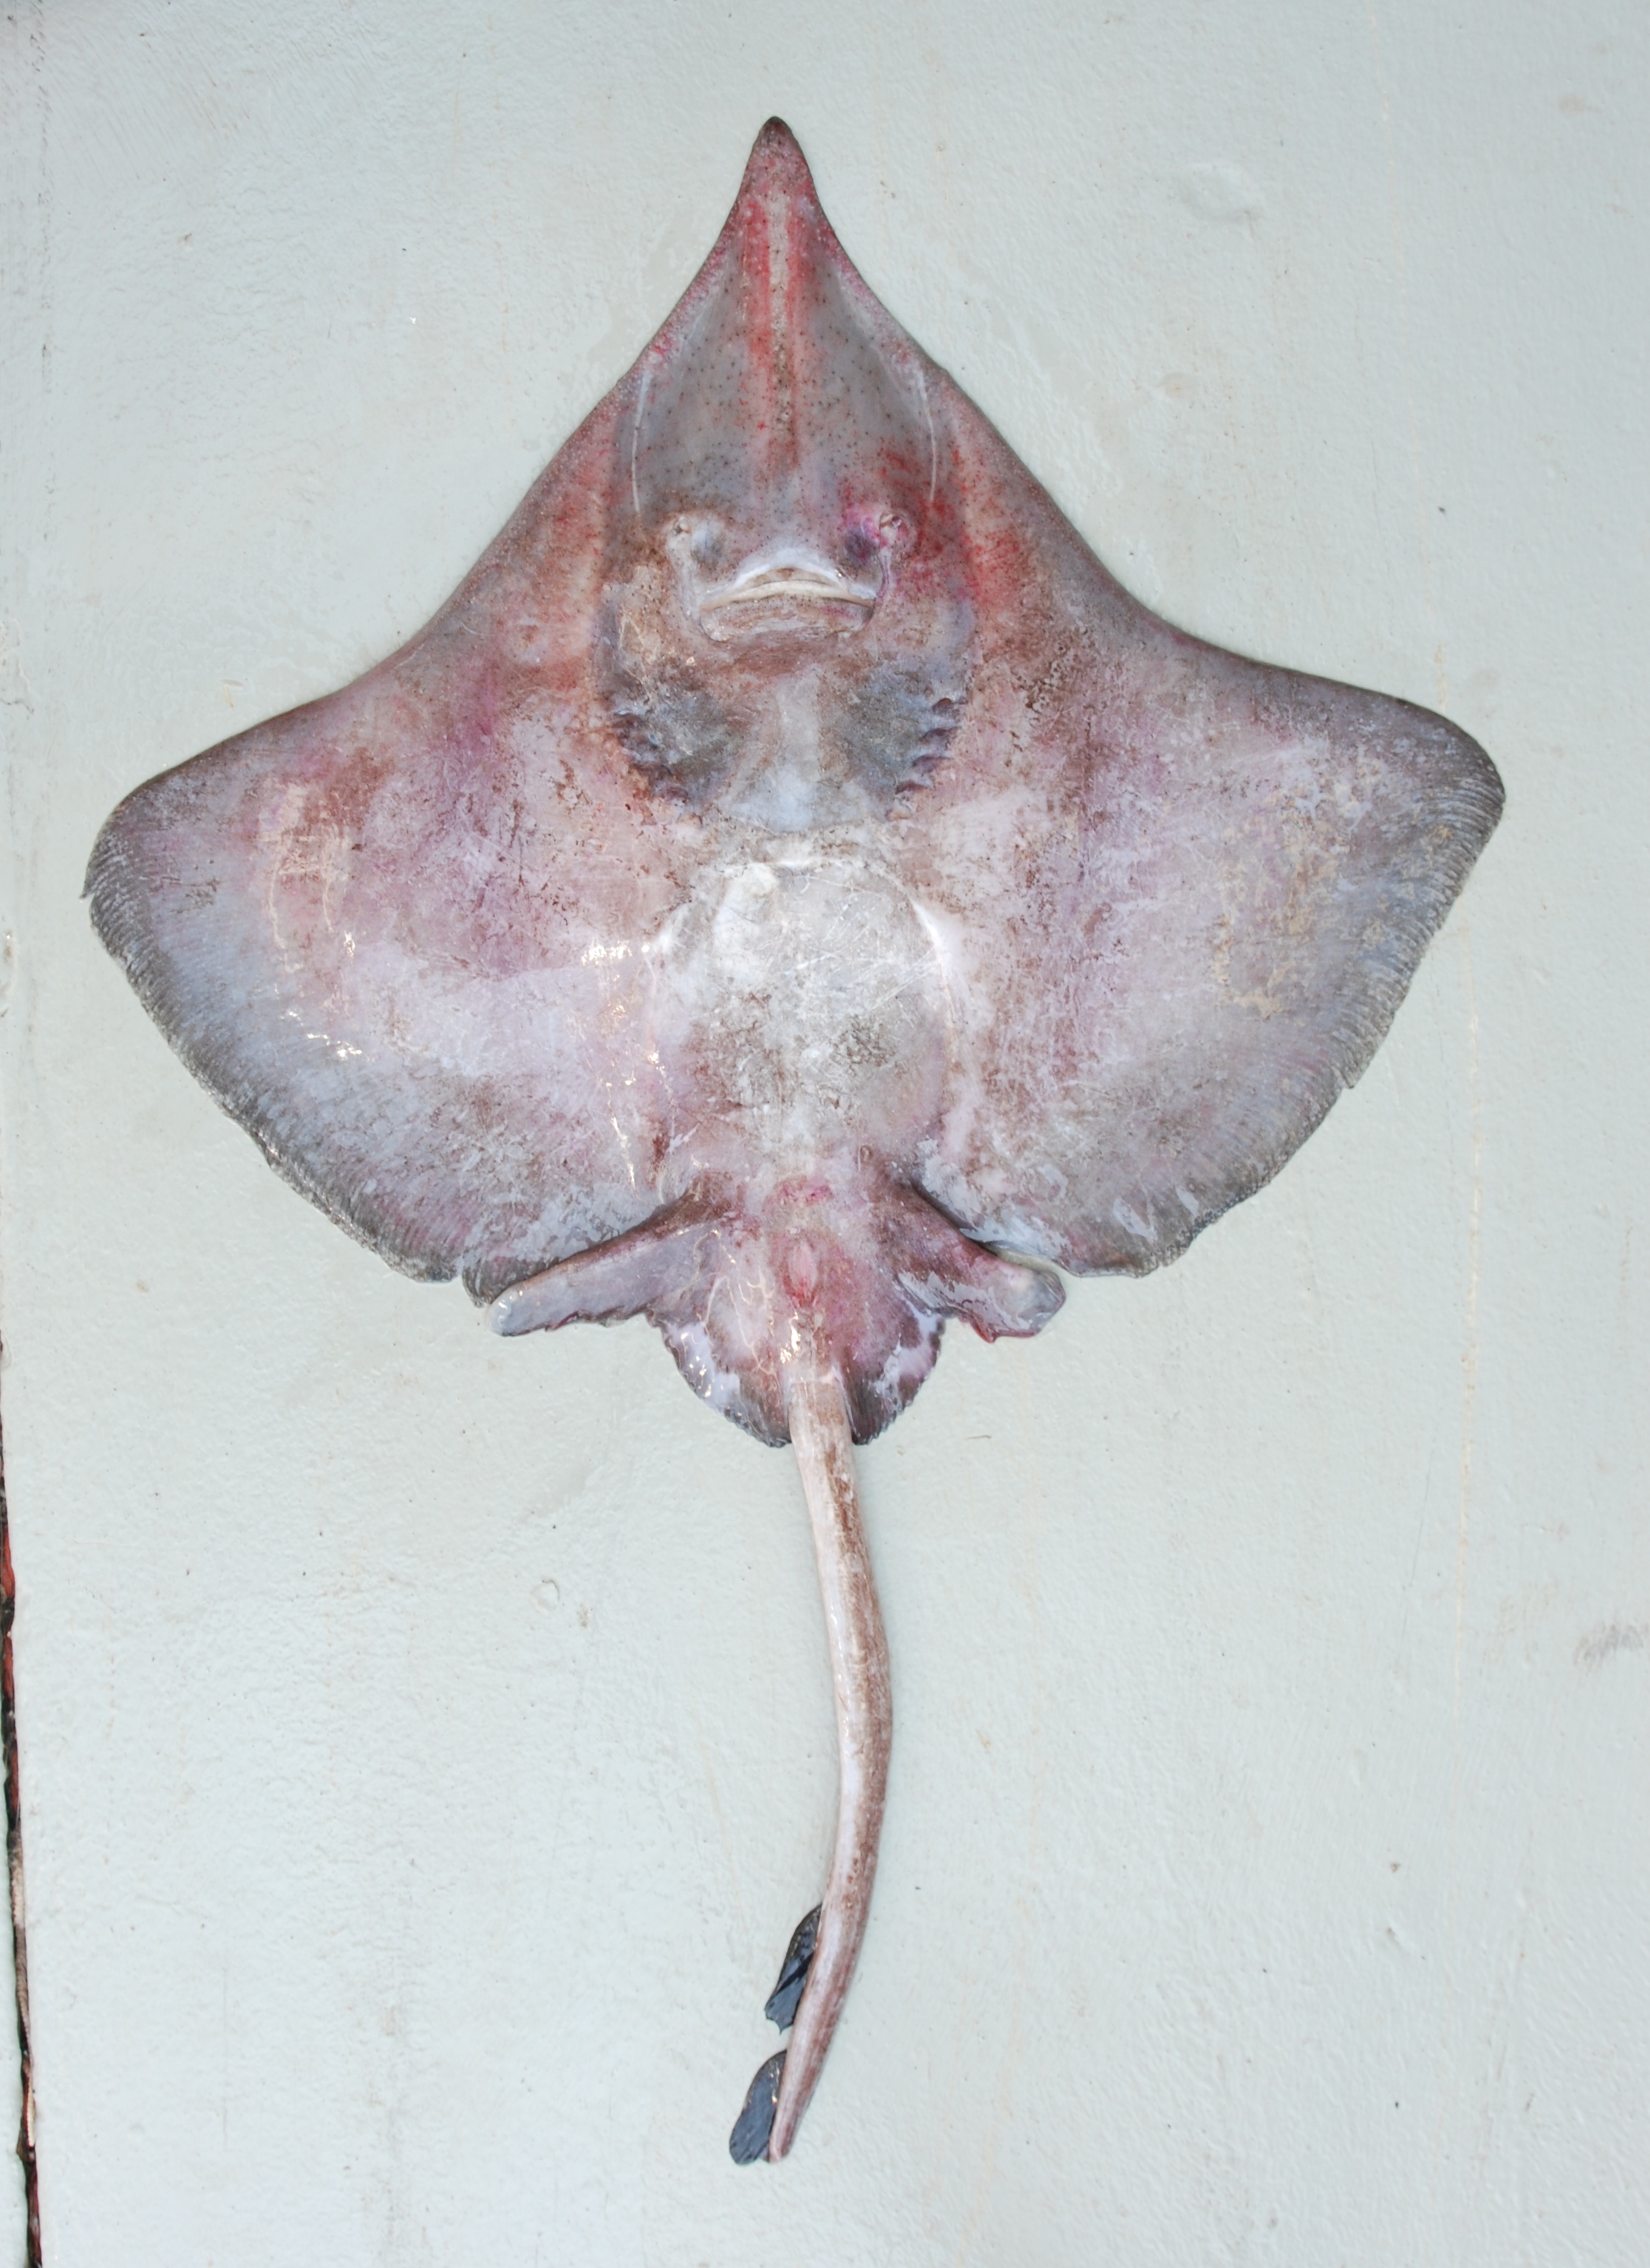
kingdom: Animalia
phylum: Chordata
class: Elasmobranchii
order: Rajiformes
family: Rajidae
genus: Dipturus
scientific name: Dipturus stenorhynchus
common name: Prownose skate
